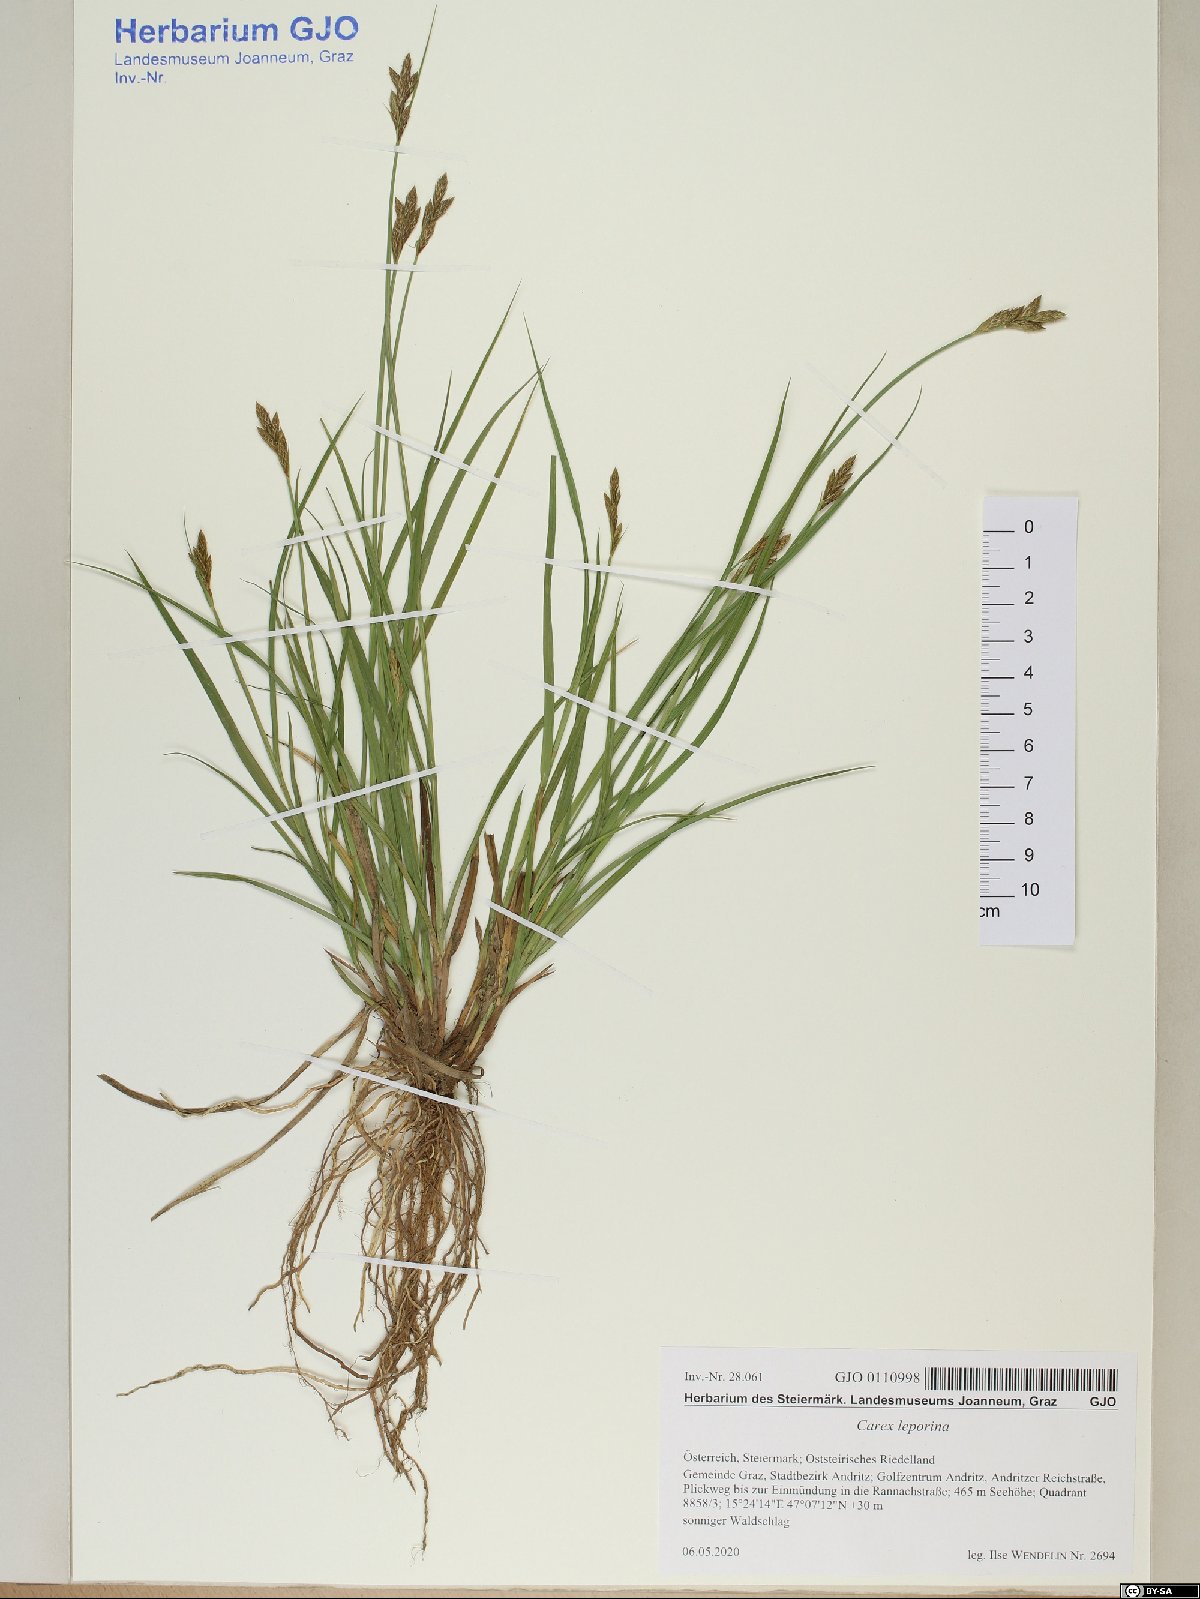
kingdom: Plantae
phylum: Tracheophyta
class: Liliopsida
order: Poales
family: Cyperaceae
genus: Carex
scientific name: Carex leporina
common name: Oval sedge
